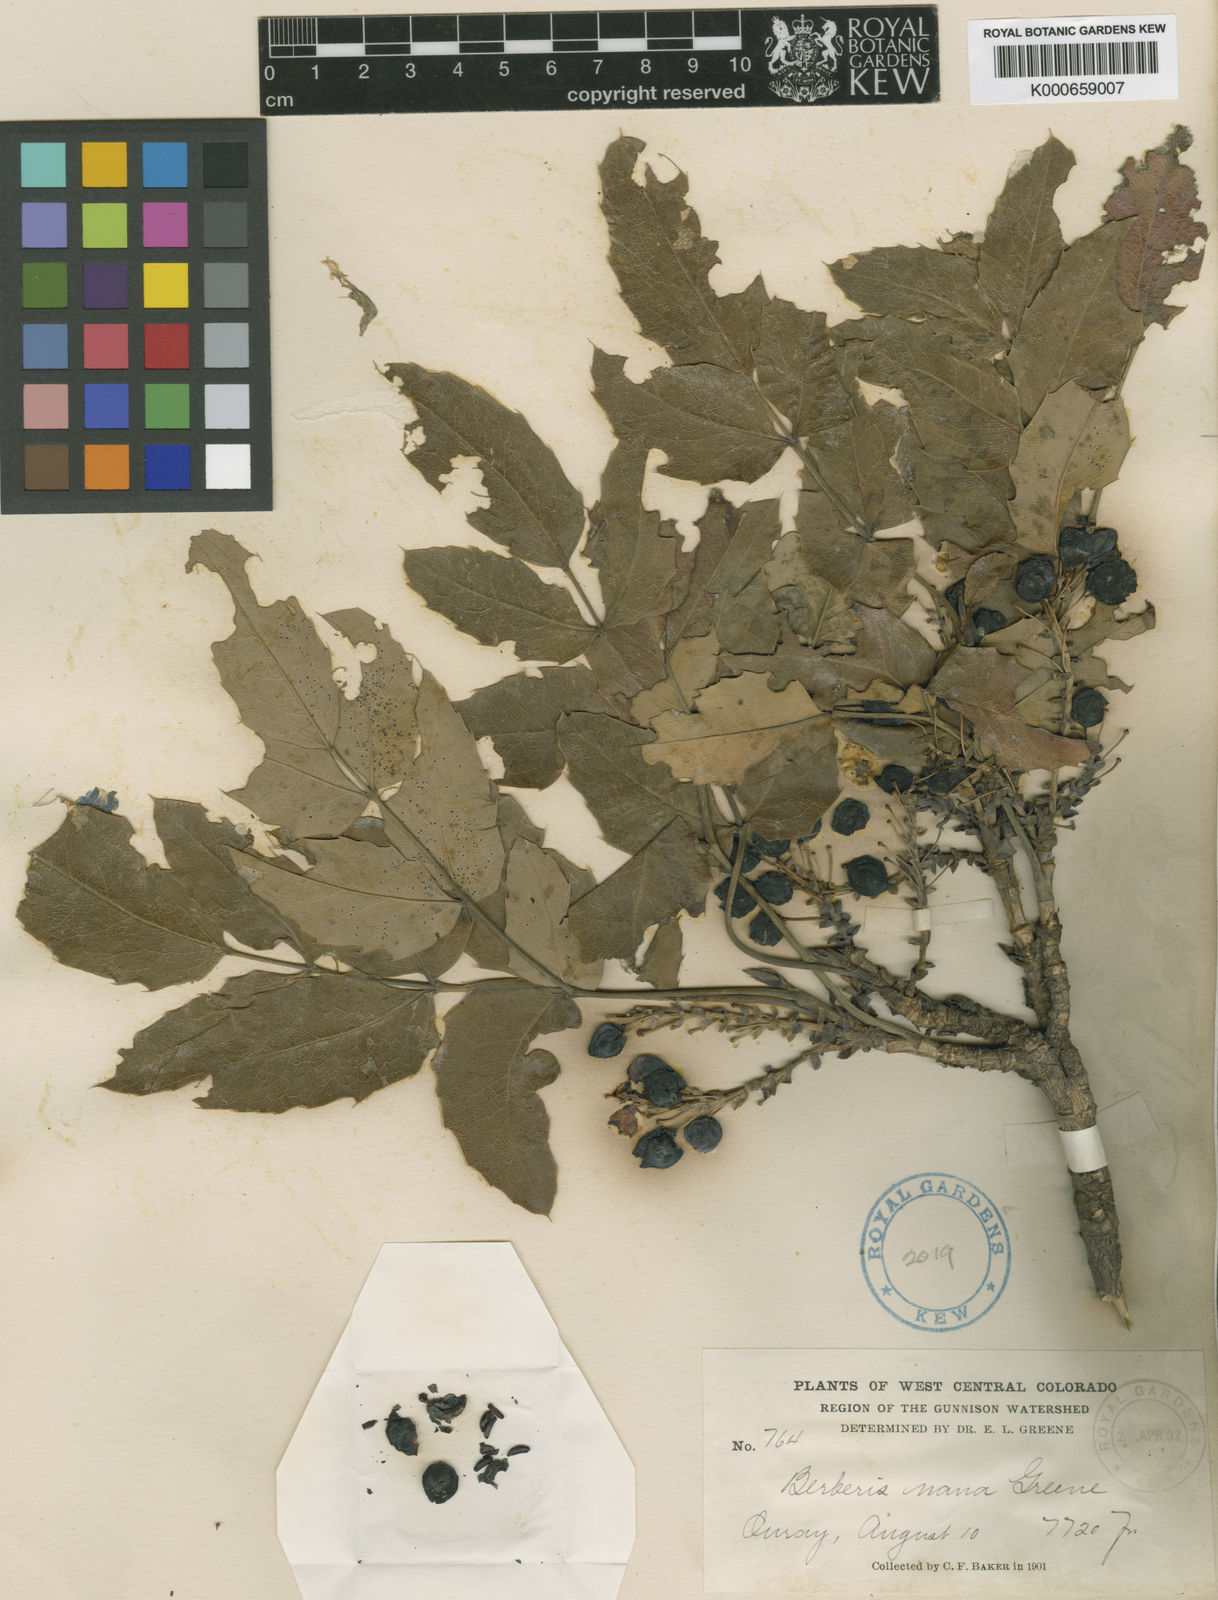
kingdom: Plantae
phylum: Tracheophyta
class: Magnoliopsida
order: Ranunculales
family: Berberidaceae
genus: Mahonia
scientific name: Mahonia repens
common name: Creeping oregon-grape
